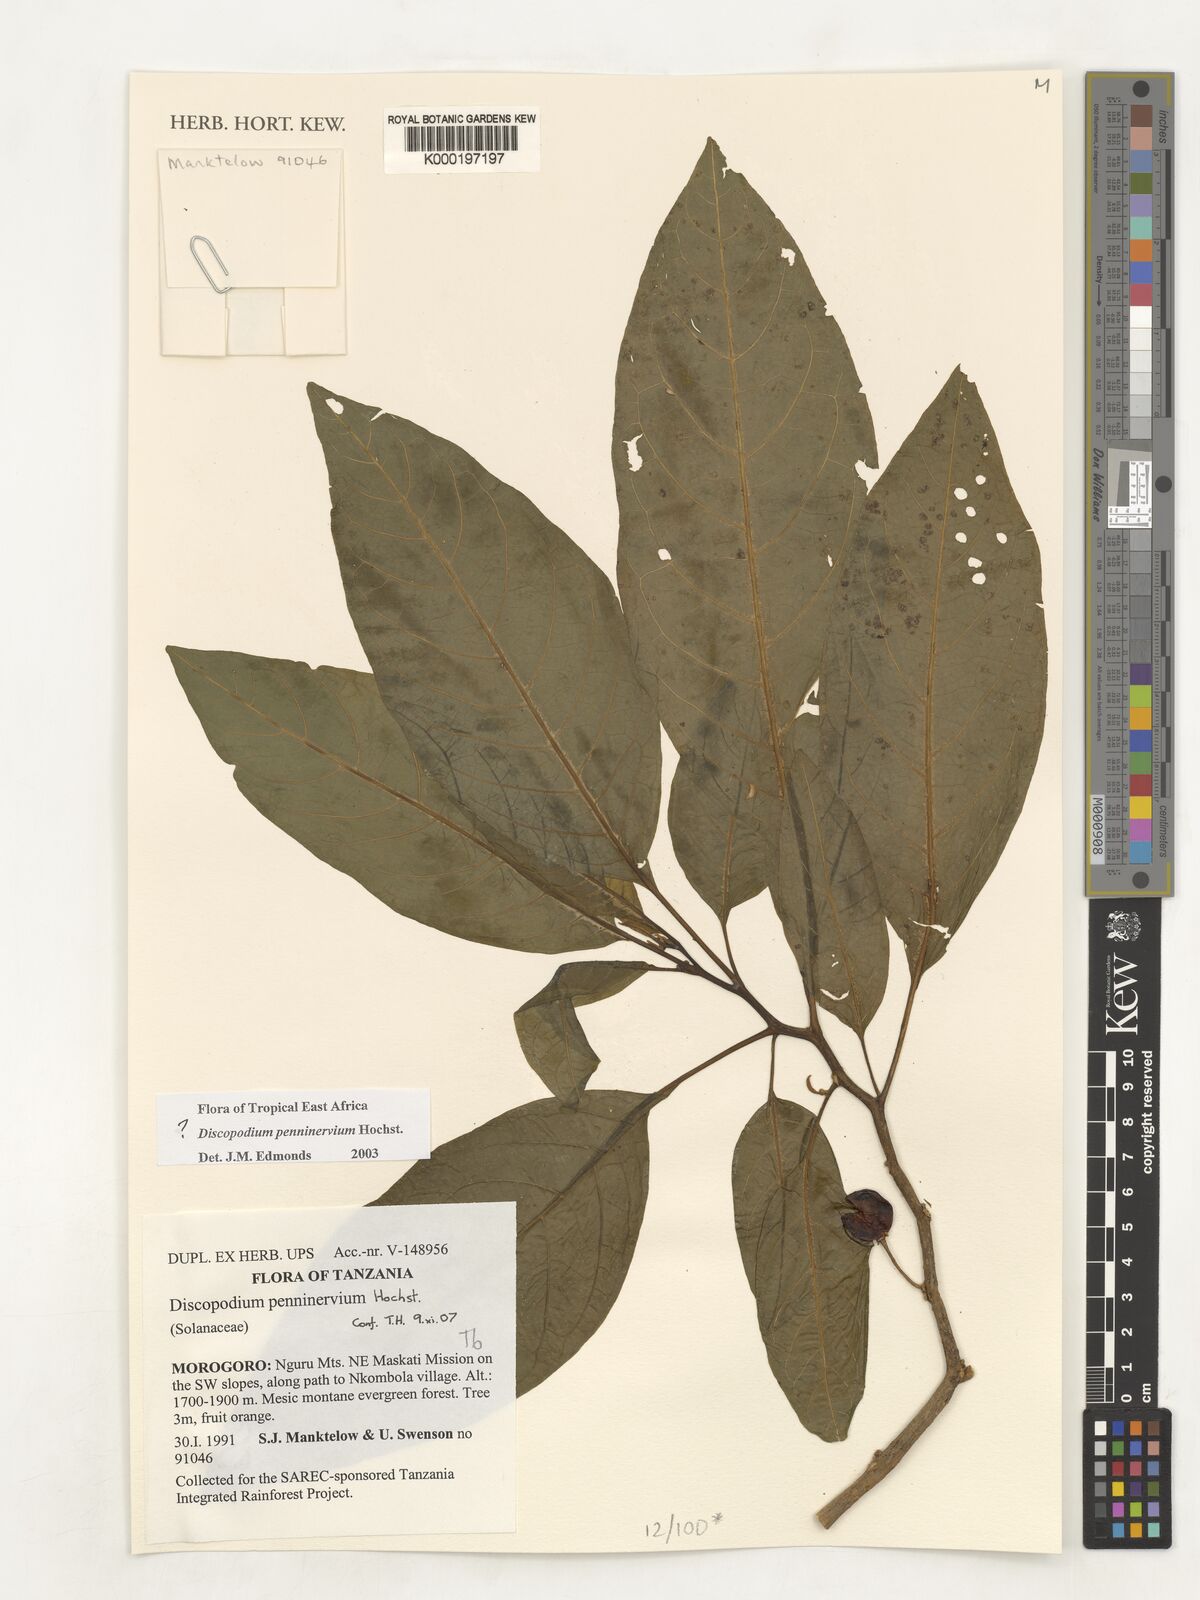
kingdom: Plantae
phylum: Tracheophyta
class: Magnoliopsida
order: Solanales
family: Solanaceae
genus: Discopodium
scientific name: Discopodium penninervium
